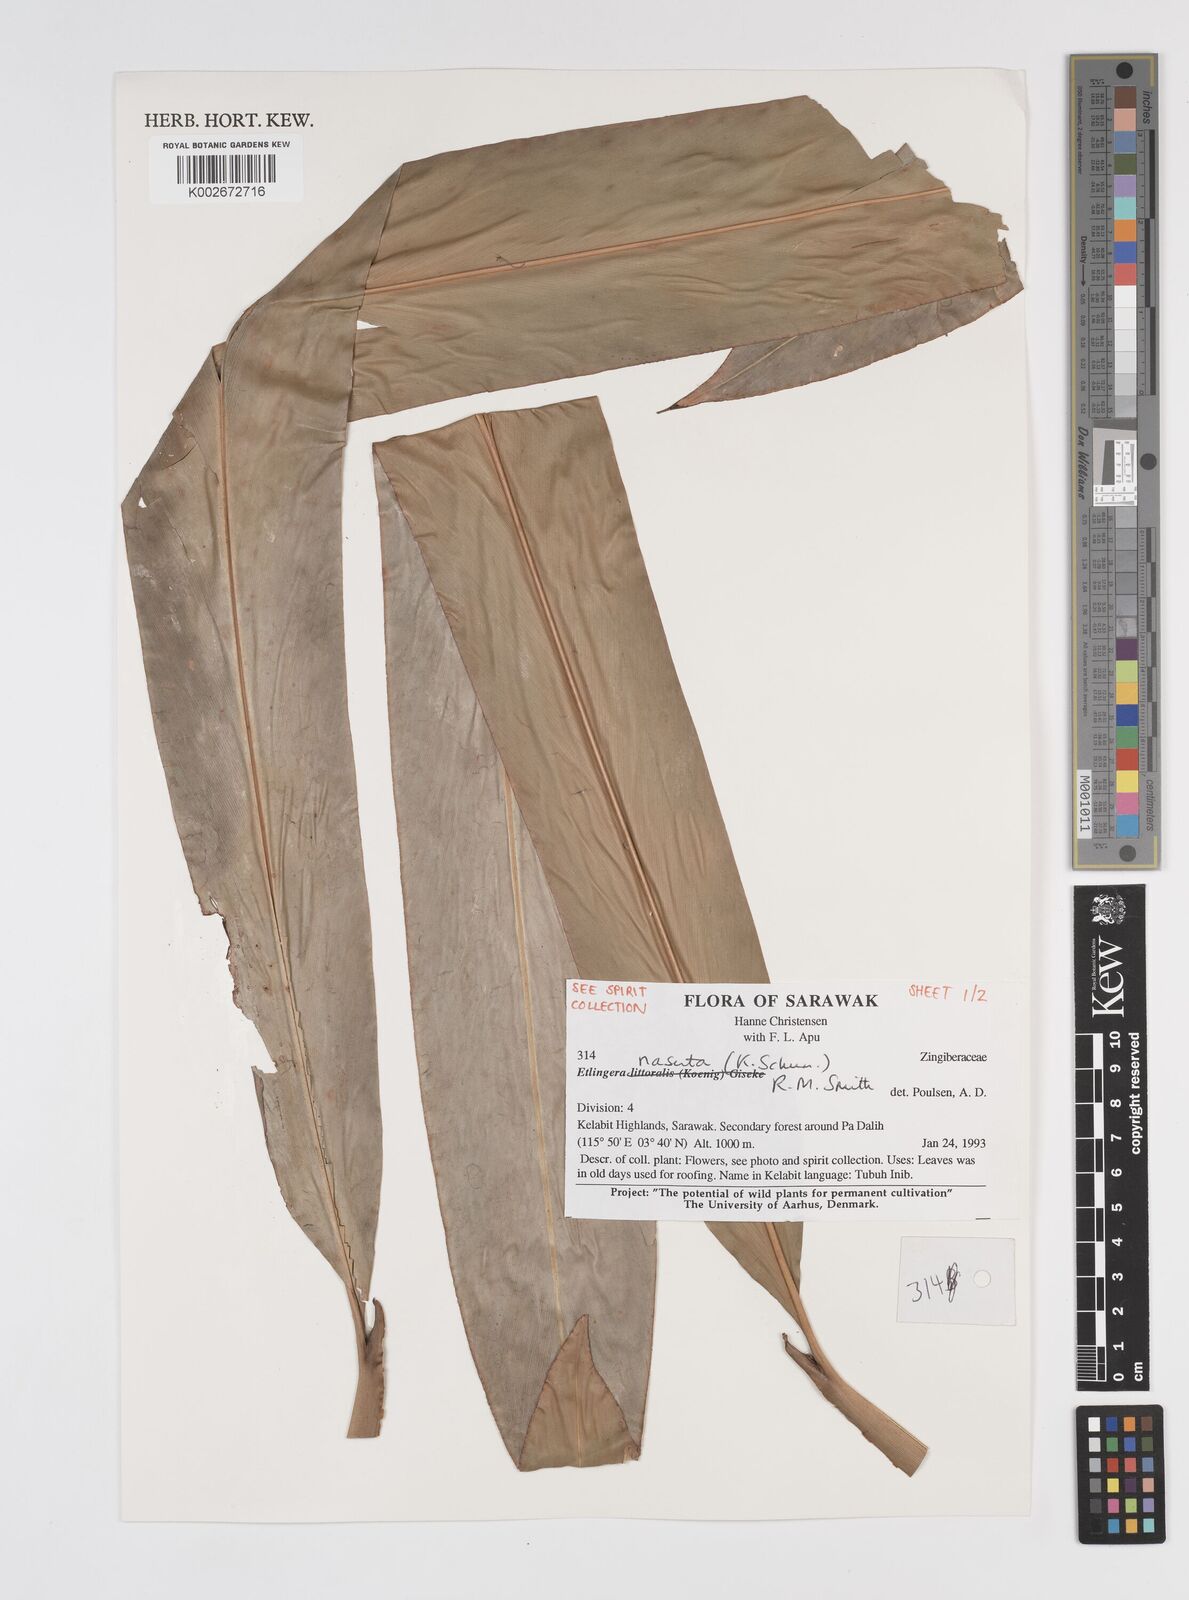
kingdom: Plantae
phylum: Tracheophyta
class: Liliopsida
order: Zingiberales
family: Zingiberaceae
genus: Etlingera
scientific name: Etlingera nasuta
